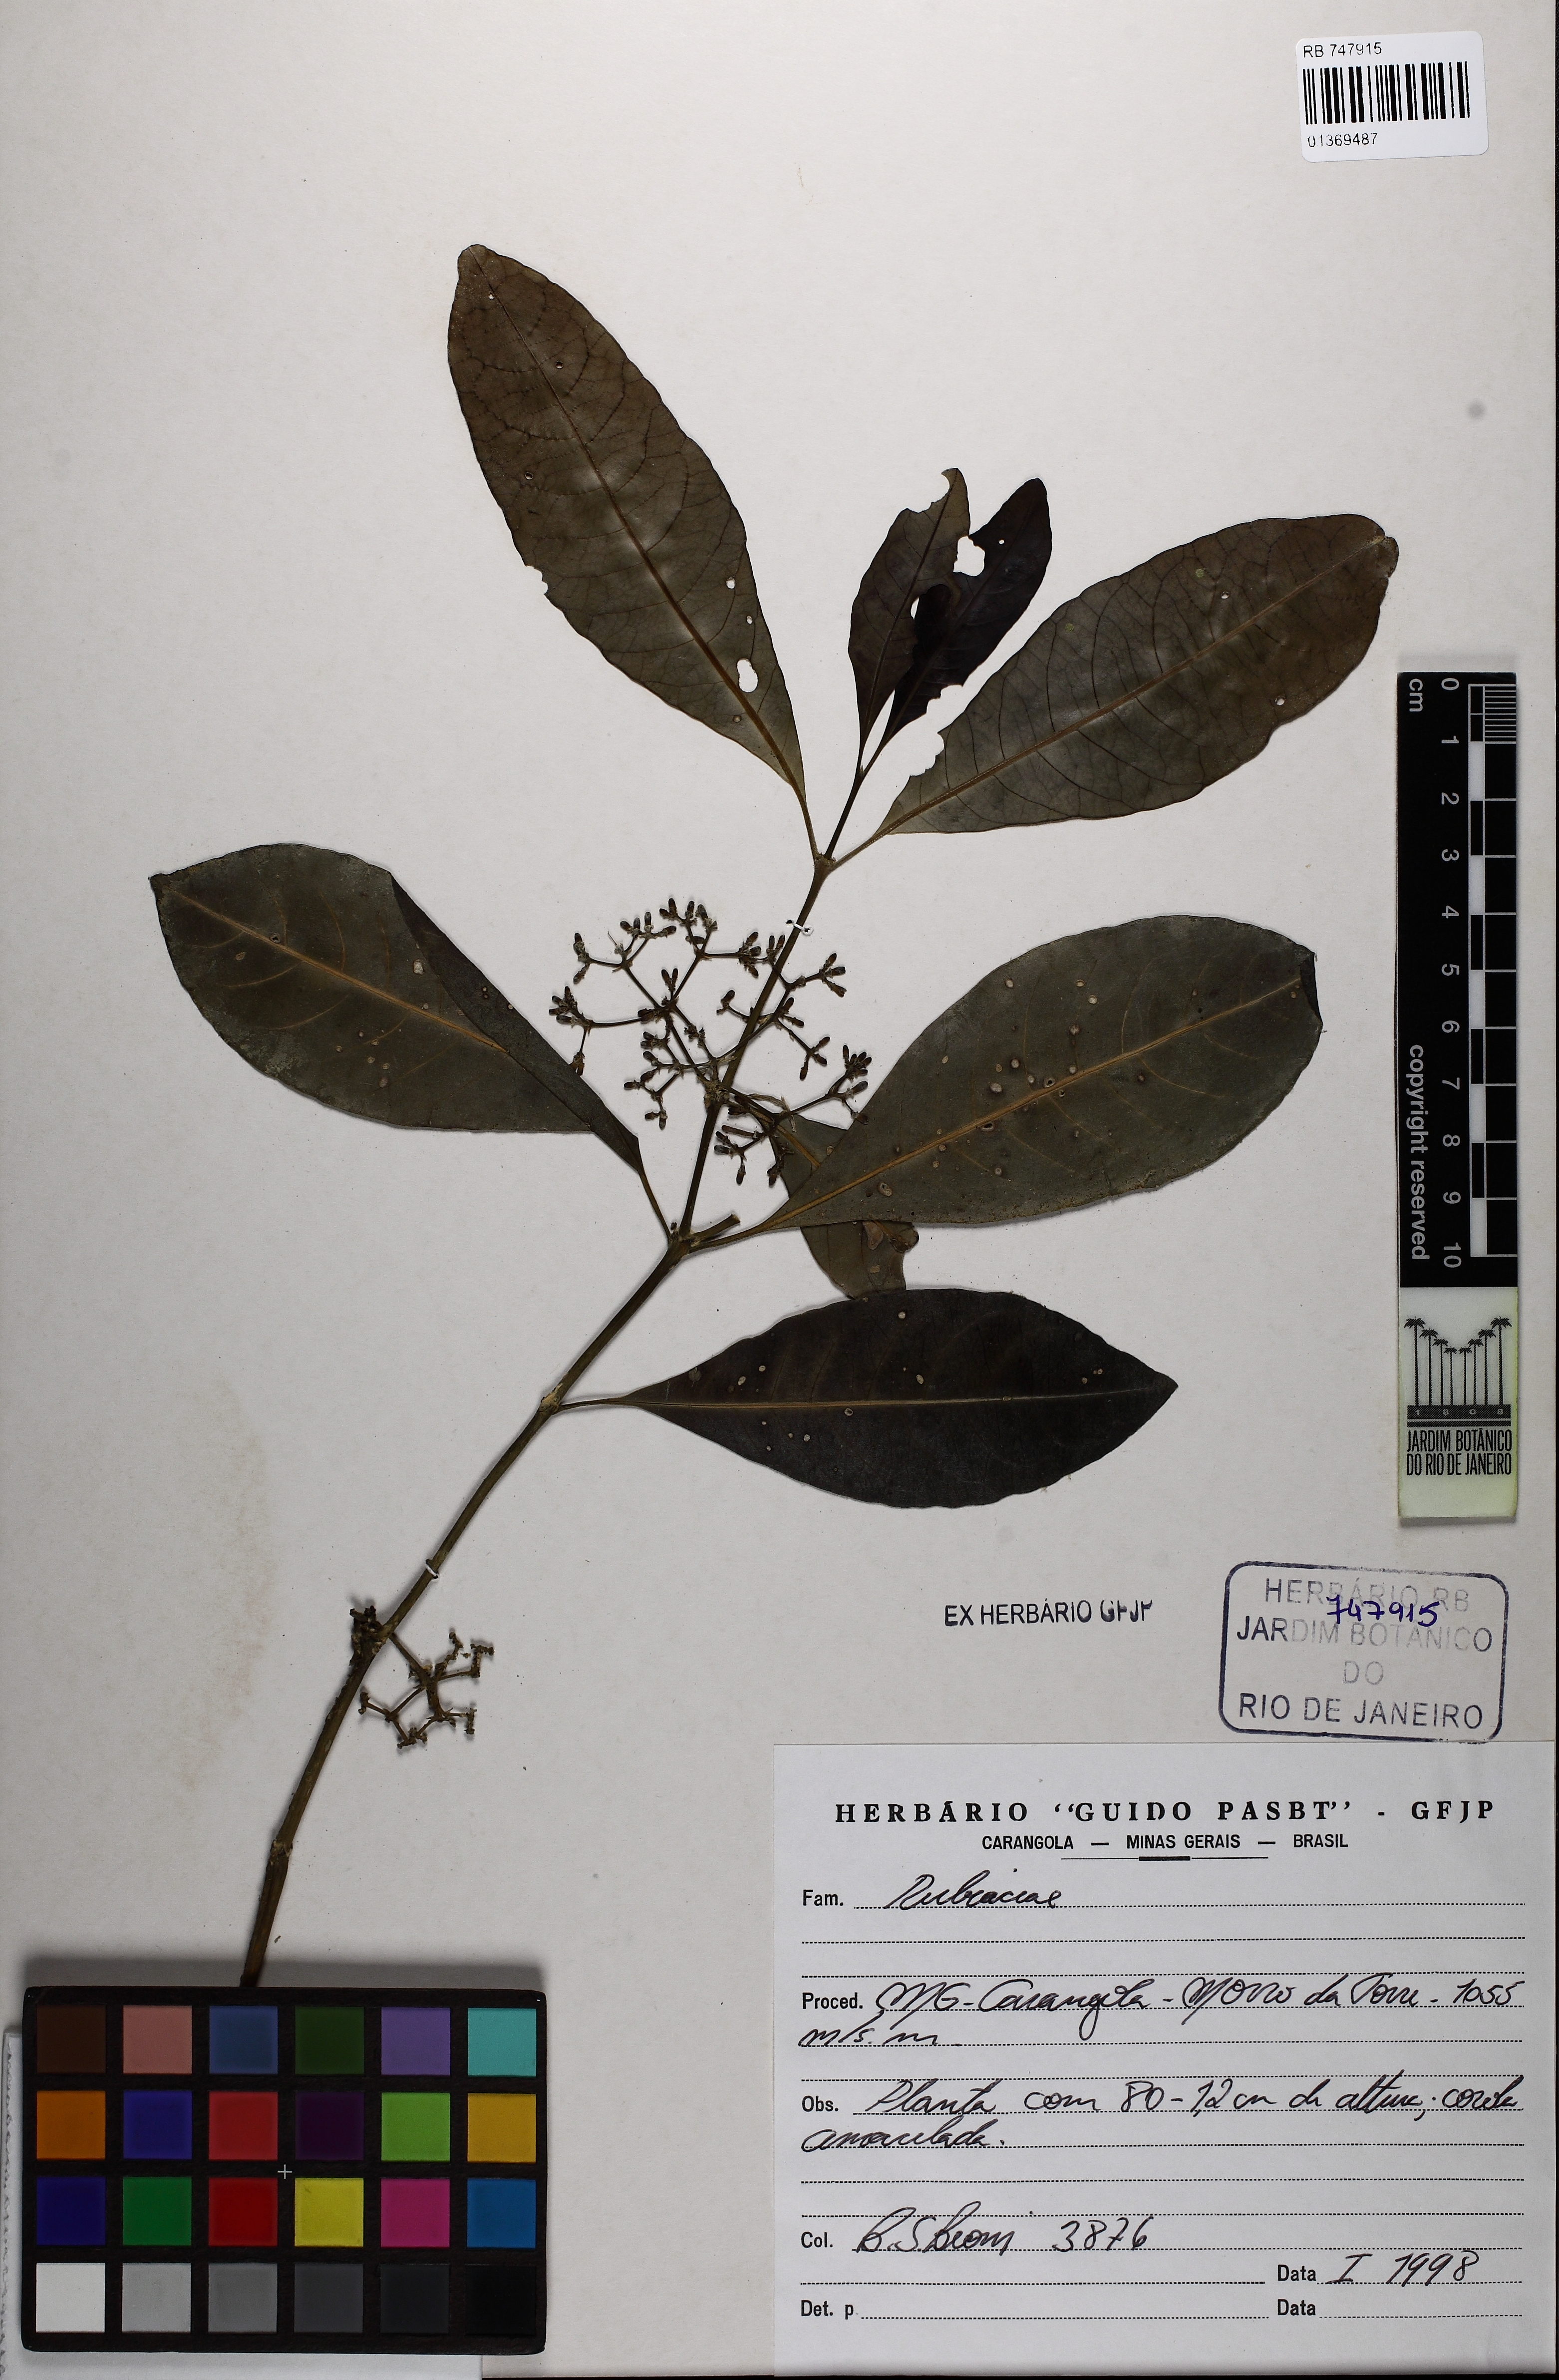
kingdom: Plantae
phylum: Tracheophyta
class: Magnoliopsida
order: Gentianales
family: Rubiaceae
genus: Psychotria
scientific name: Psychotria pallens
